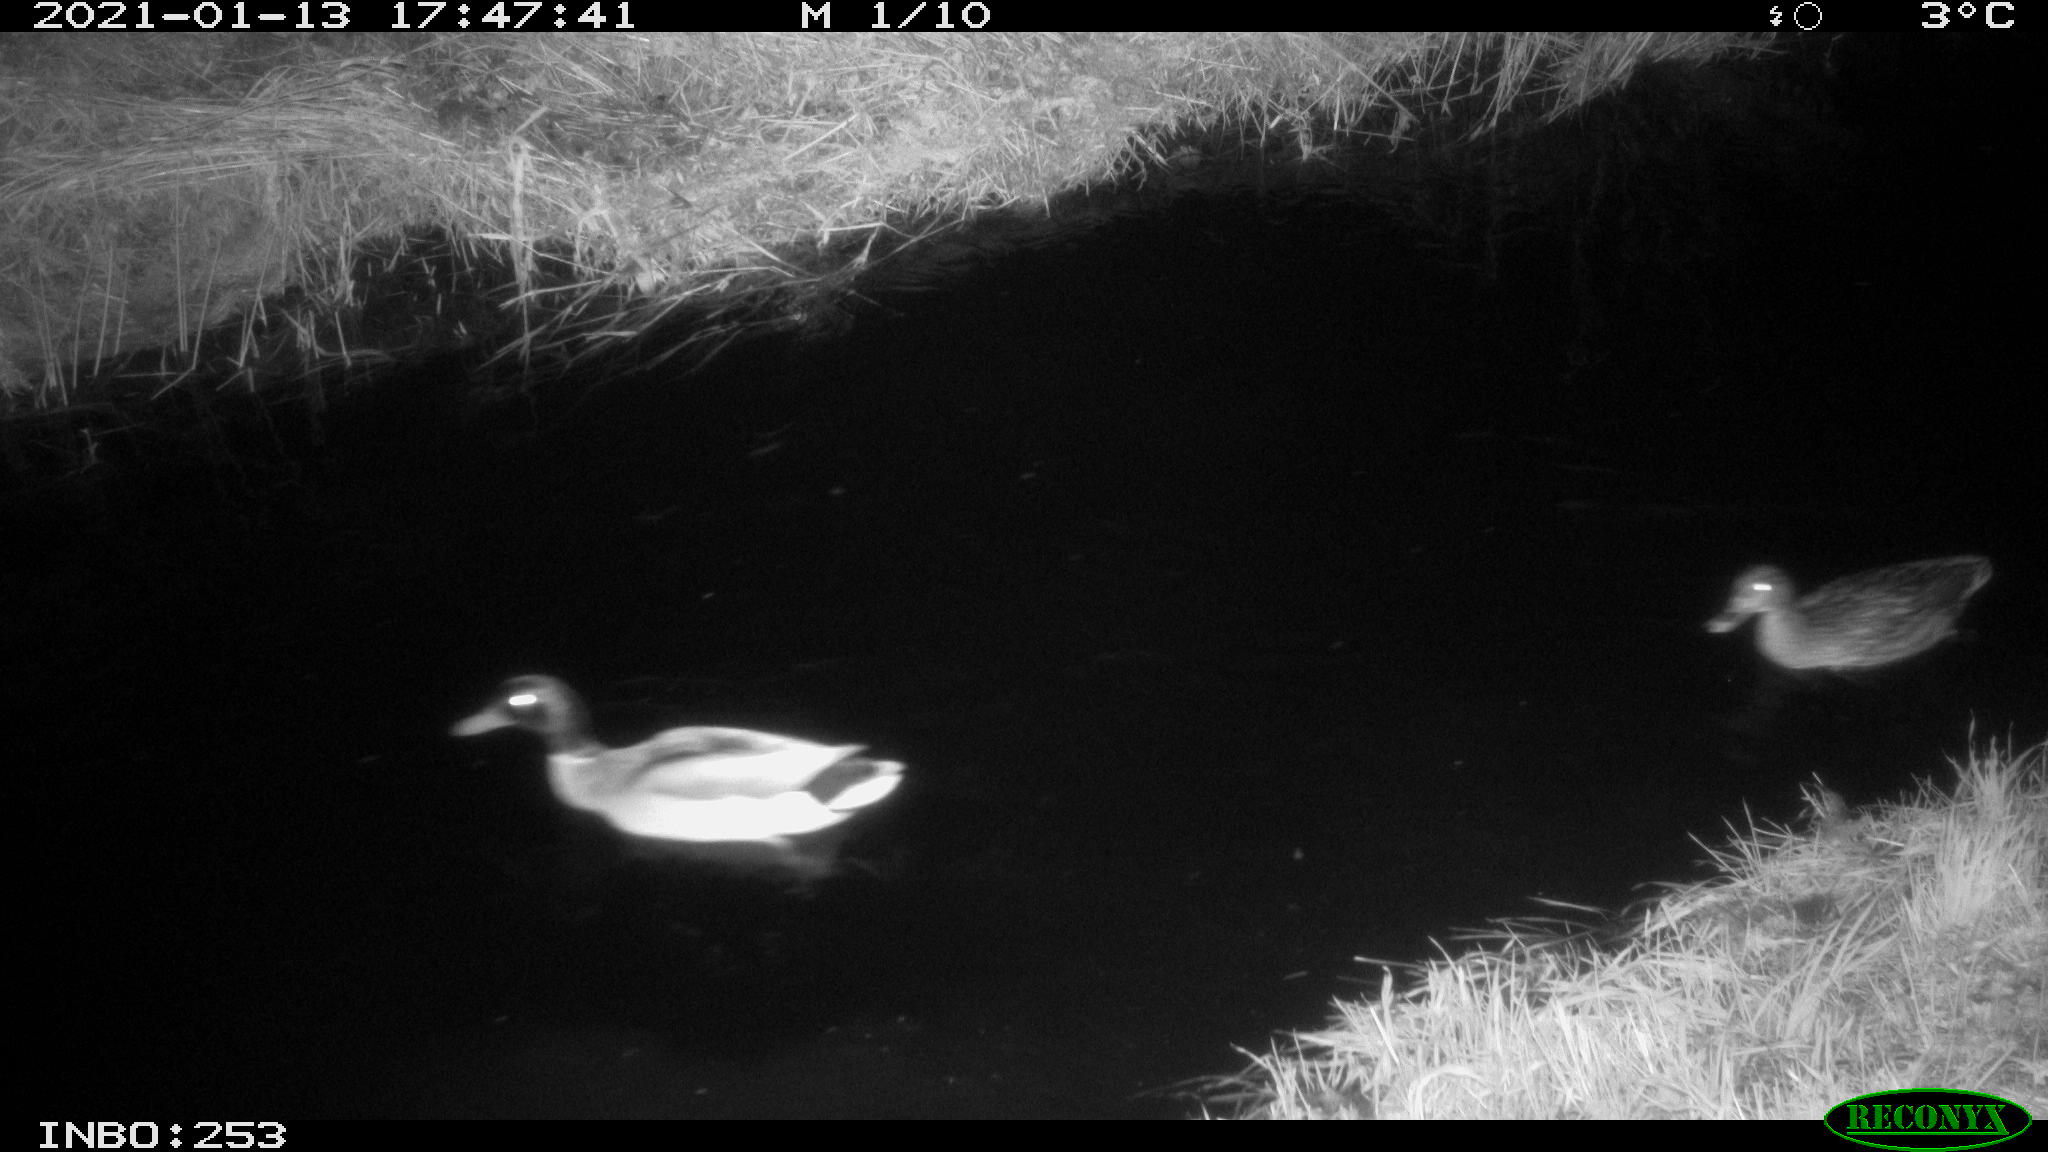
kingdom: Animalia
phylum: Chordata
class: Aves
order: Anseriformes
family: Anatidae
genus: Anas
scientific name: Anas platyrhynchos
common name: Mallard
